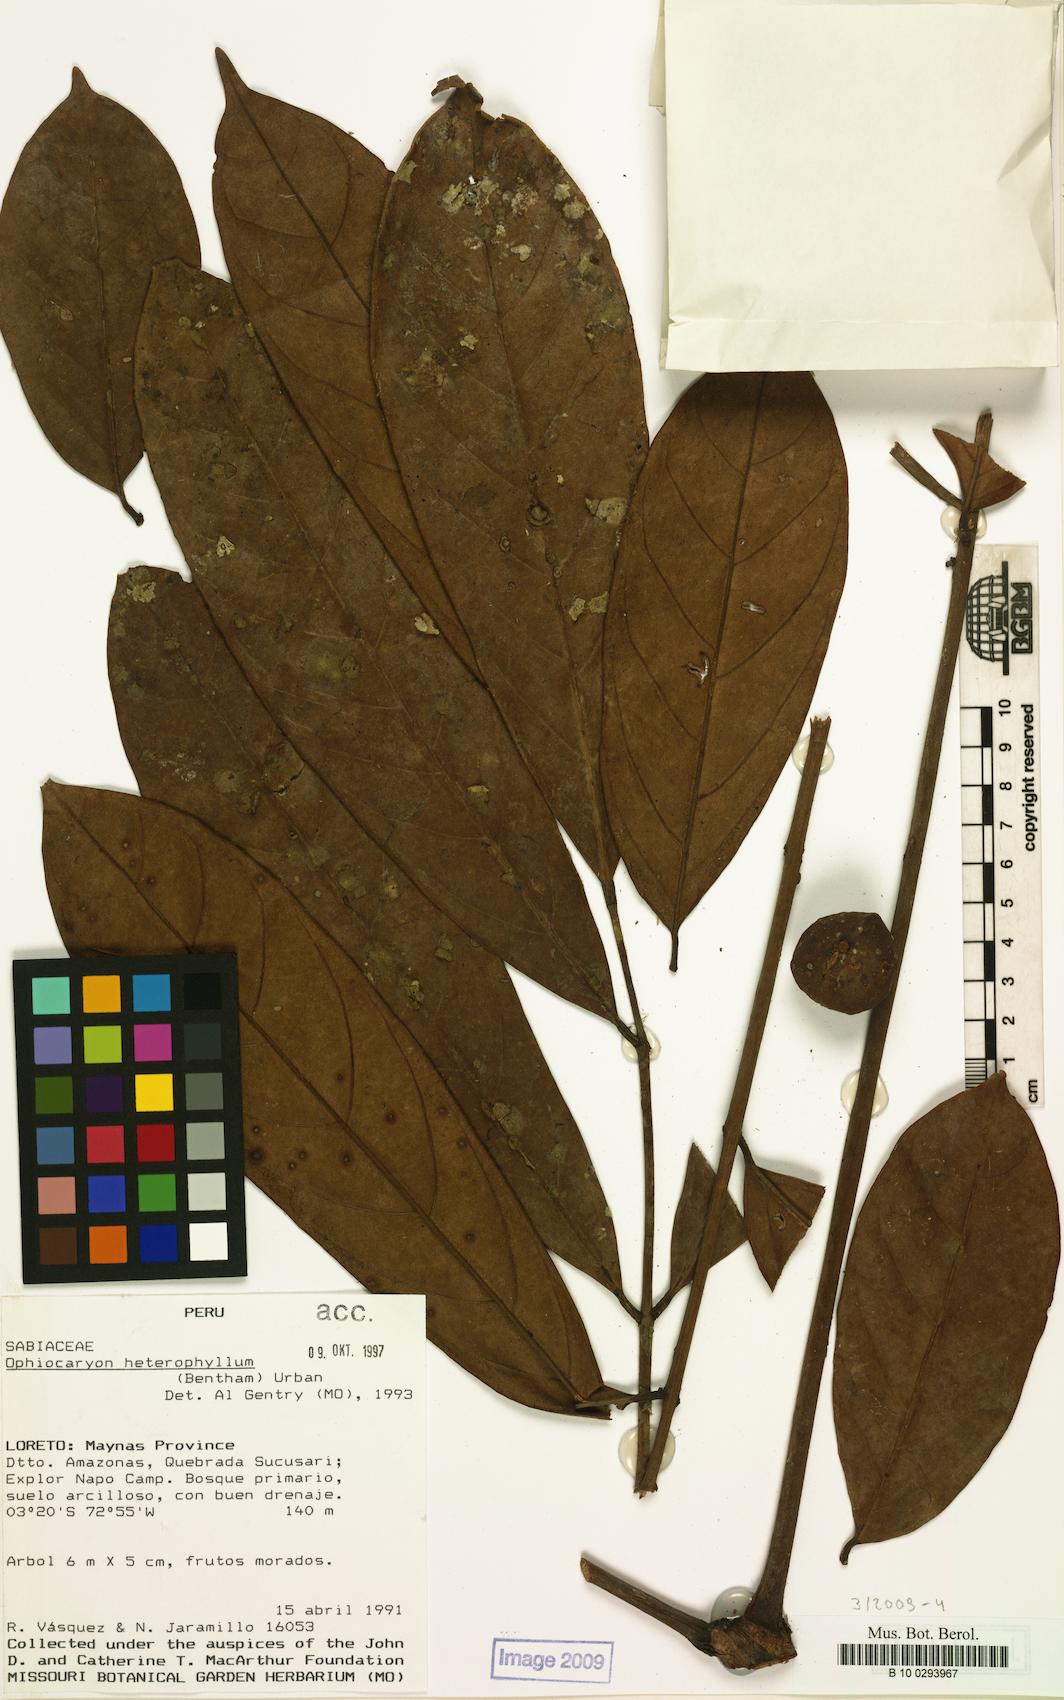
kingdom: Plantae
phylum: Tracheophyta
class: Magnoliopsida
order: Proteales
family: Sabiaceae
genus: Ophiocaryon
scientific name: Ophiocaryon heterophyllum
